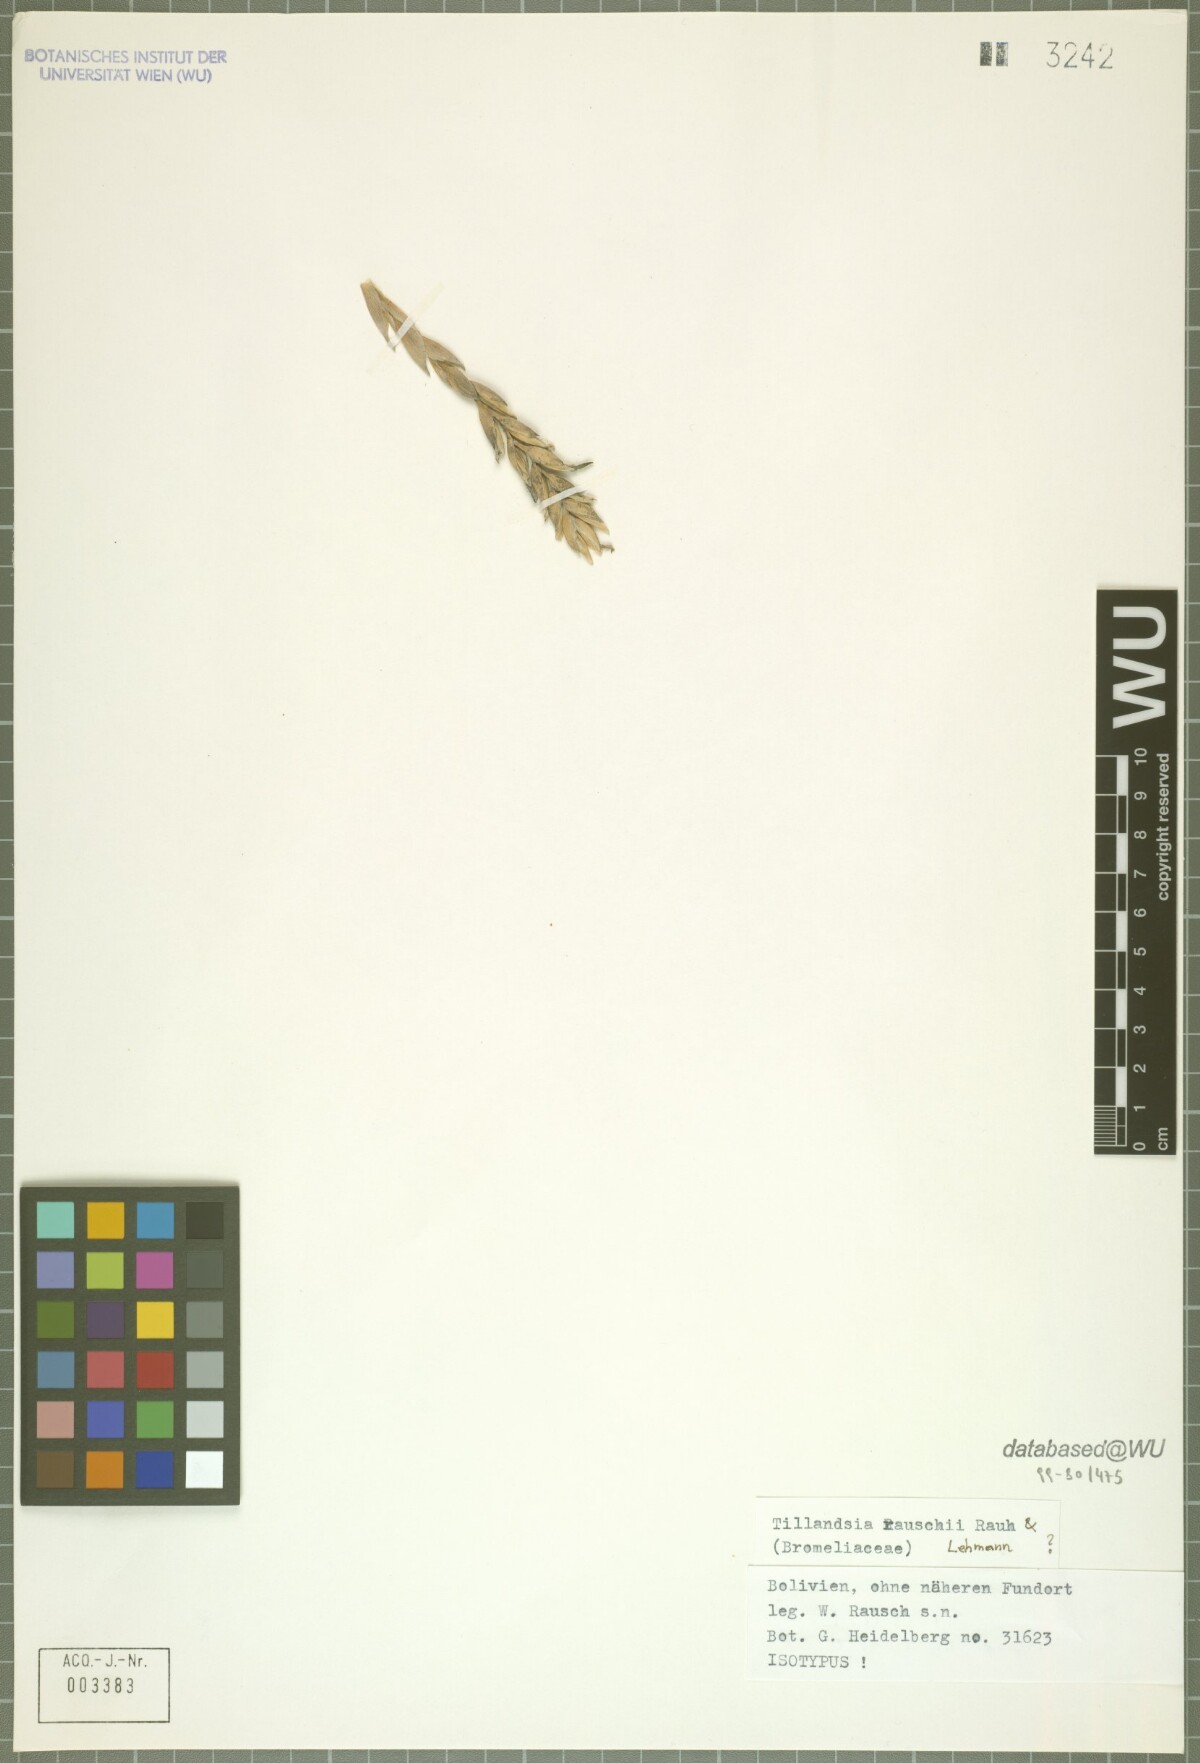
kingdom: Plantae
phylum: Tracheophyta
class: Liliopsida
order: Poales
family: Bromeliaceae
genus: Tillandsia
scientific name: Tillandsia rauschii
